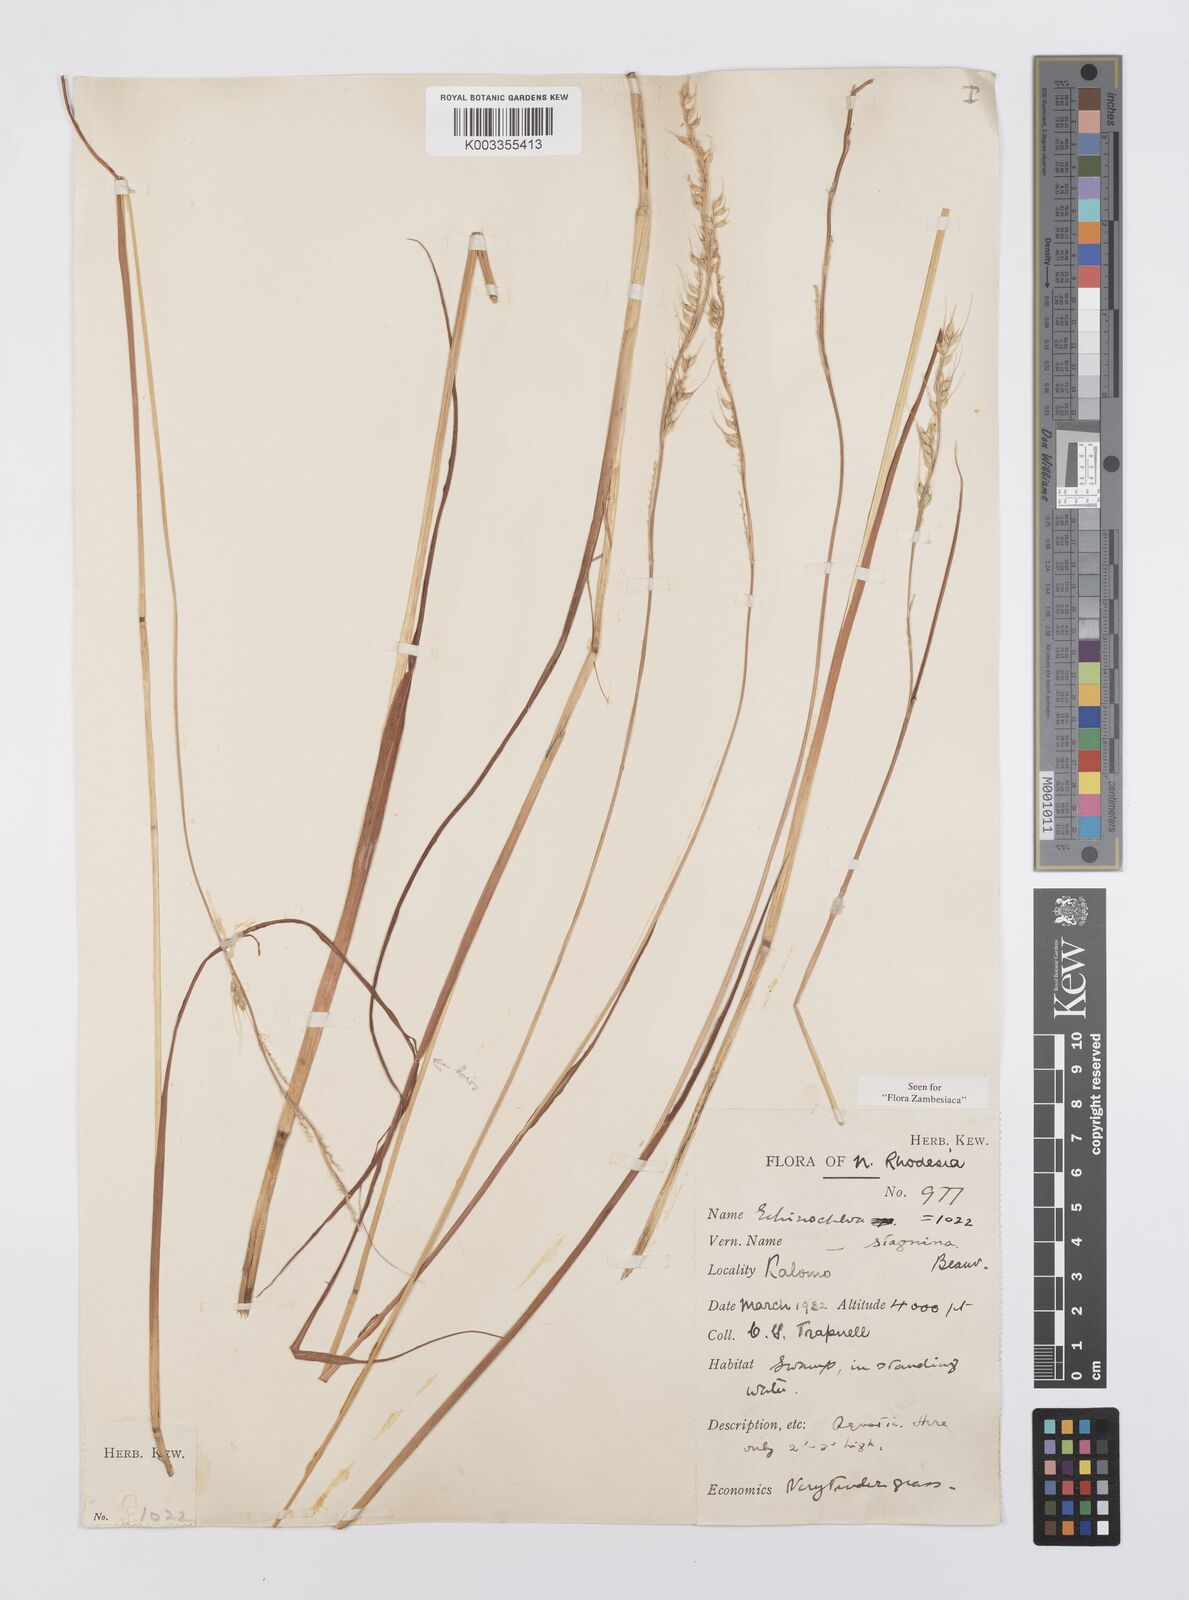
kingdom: Plantae
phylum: Tracheophyta
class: Liliopsida
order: Poales
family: Poaceae
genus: Echinochloa
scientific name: Echinochloa stagnina
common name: Burgu grass
